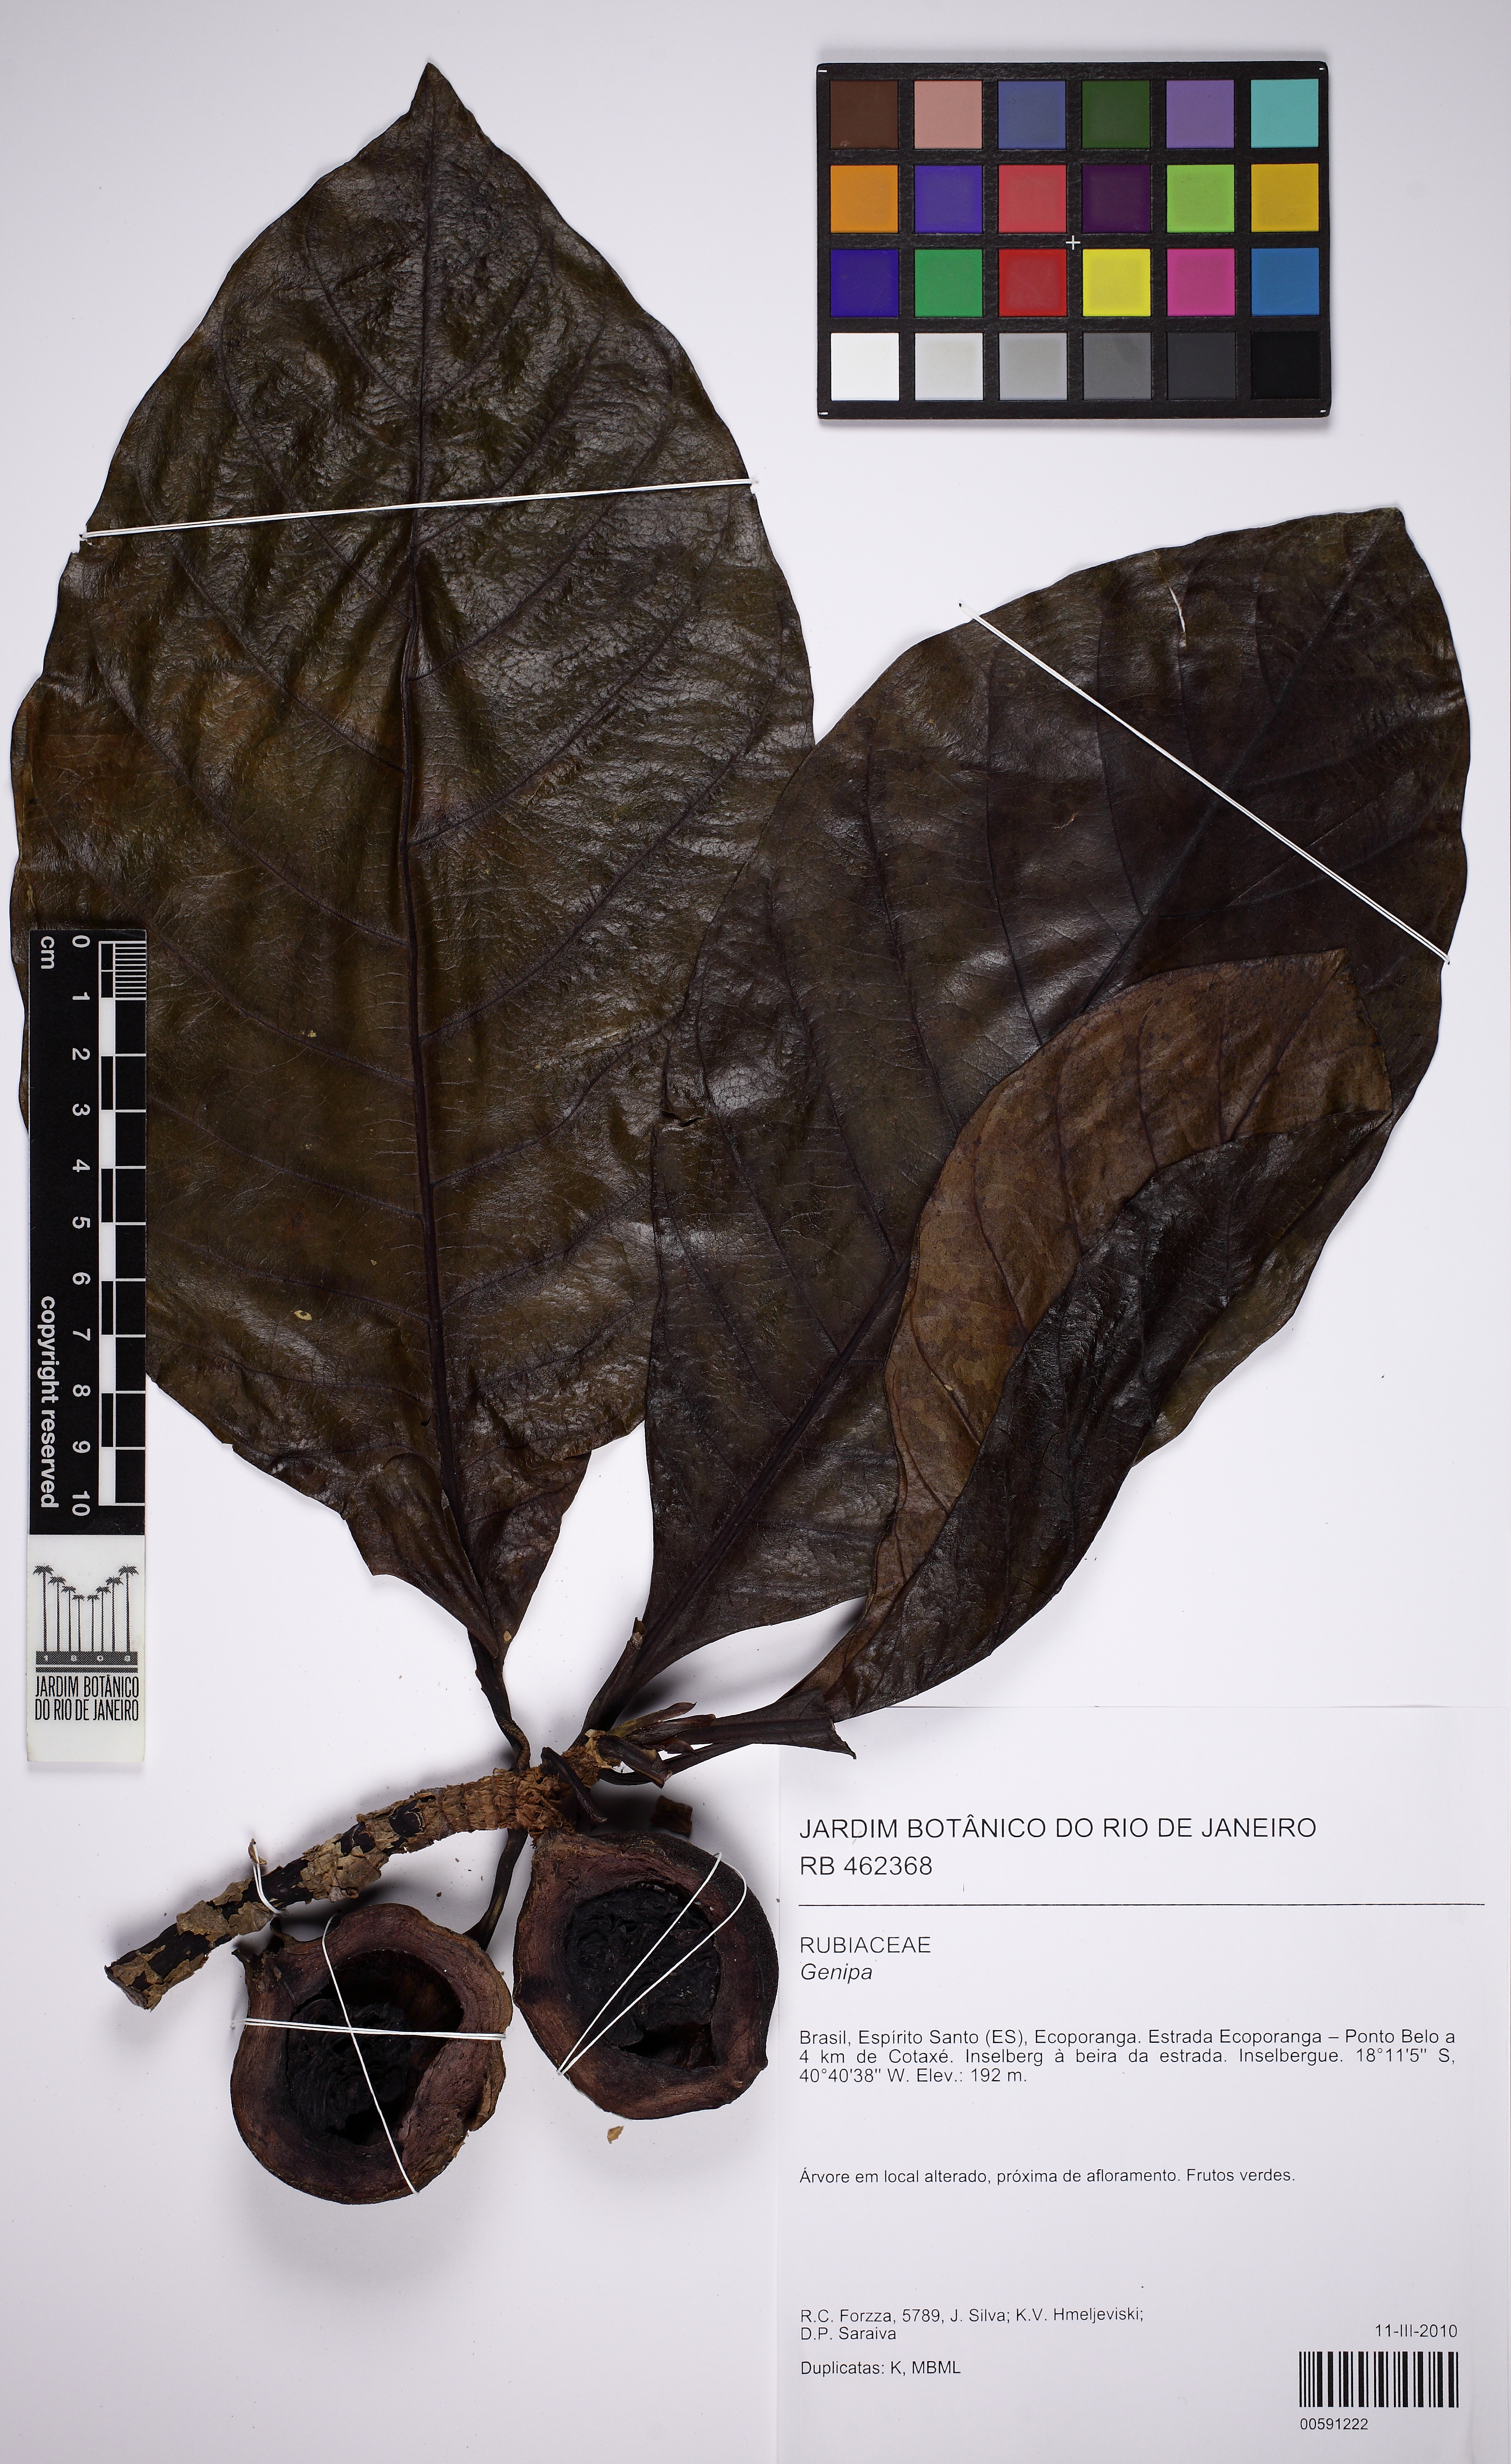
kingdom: Plantae
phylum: Tracheophyta
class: Magnoliopsida
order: Gentianales
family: Rubiaceae
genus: Genipa
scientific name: Genipa infundibuliformis
